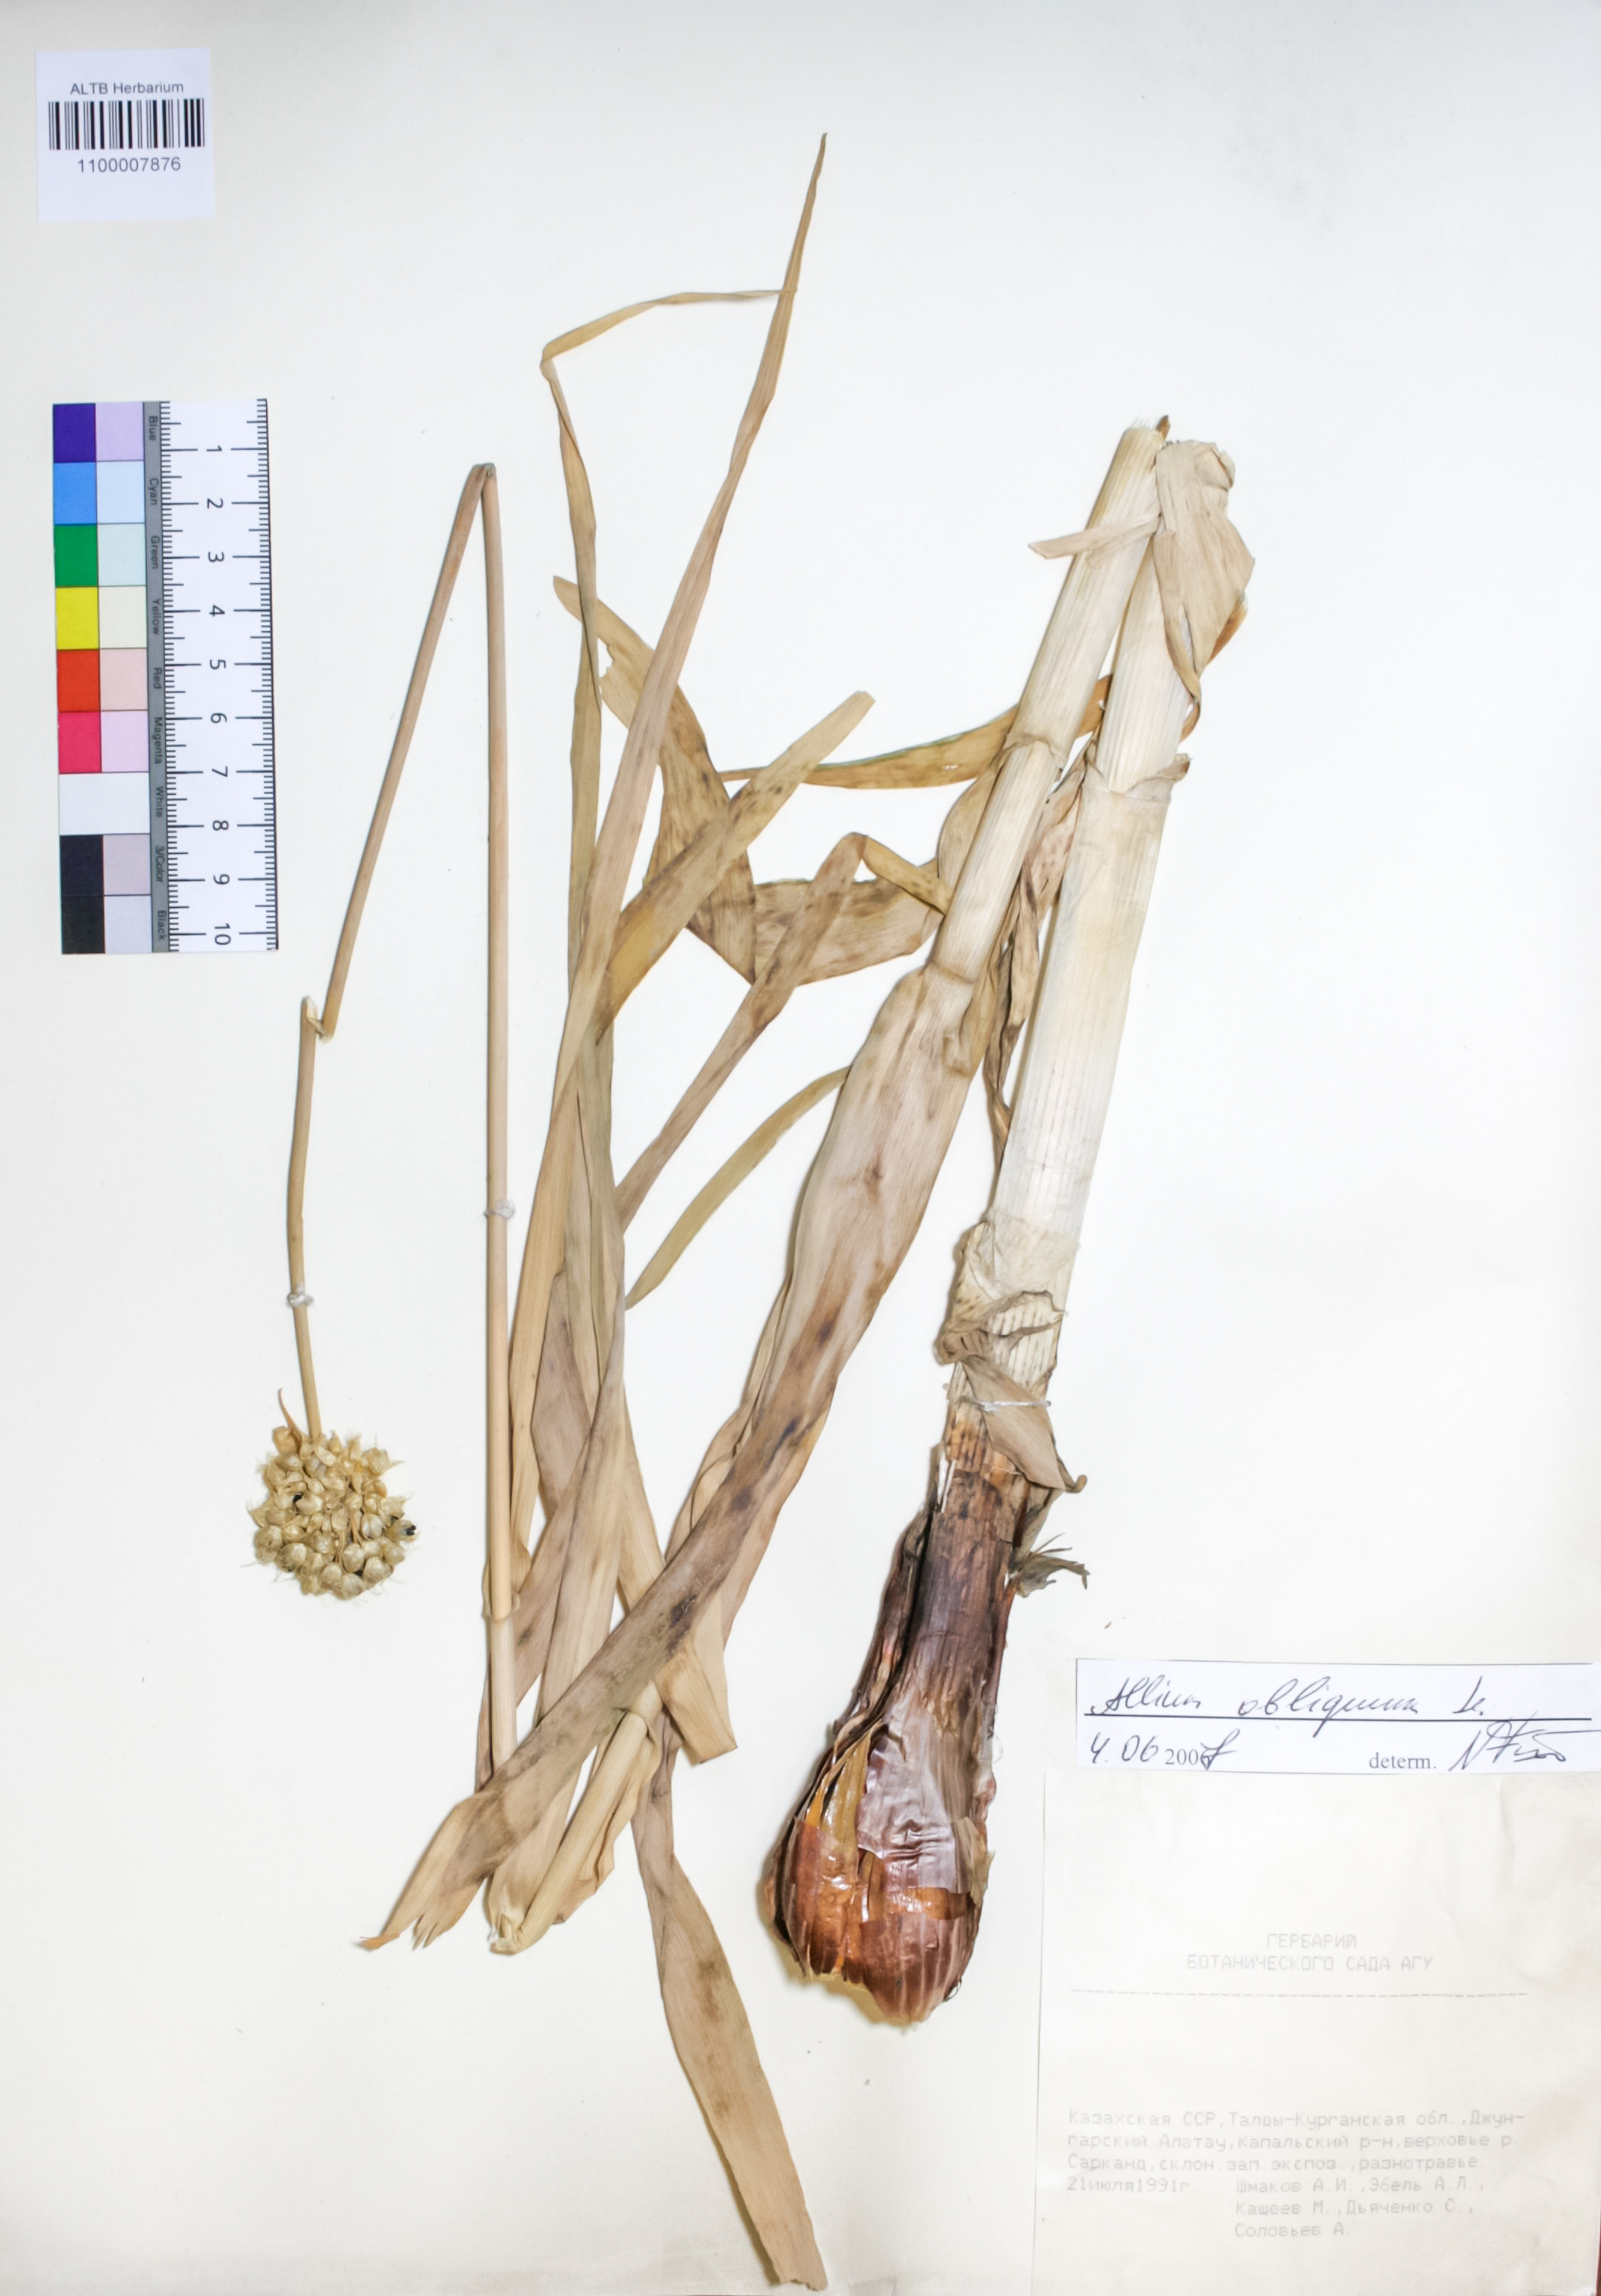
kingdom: Plantae
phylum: Tracheophyta
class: Liliopsida
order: Asparagales
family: Amaryllidaceae
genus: Allium
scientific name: Allium obliquum
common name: Oblique onion
